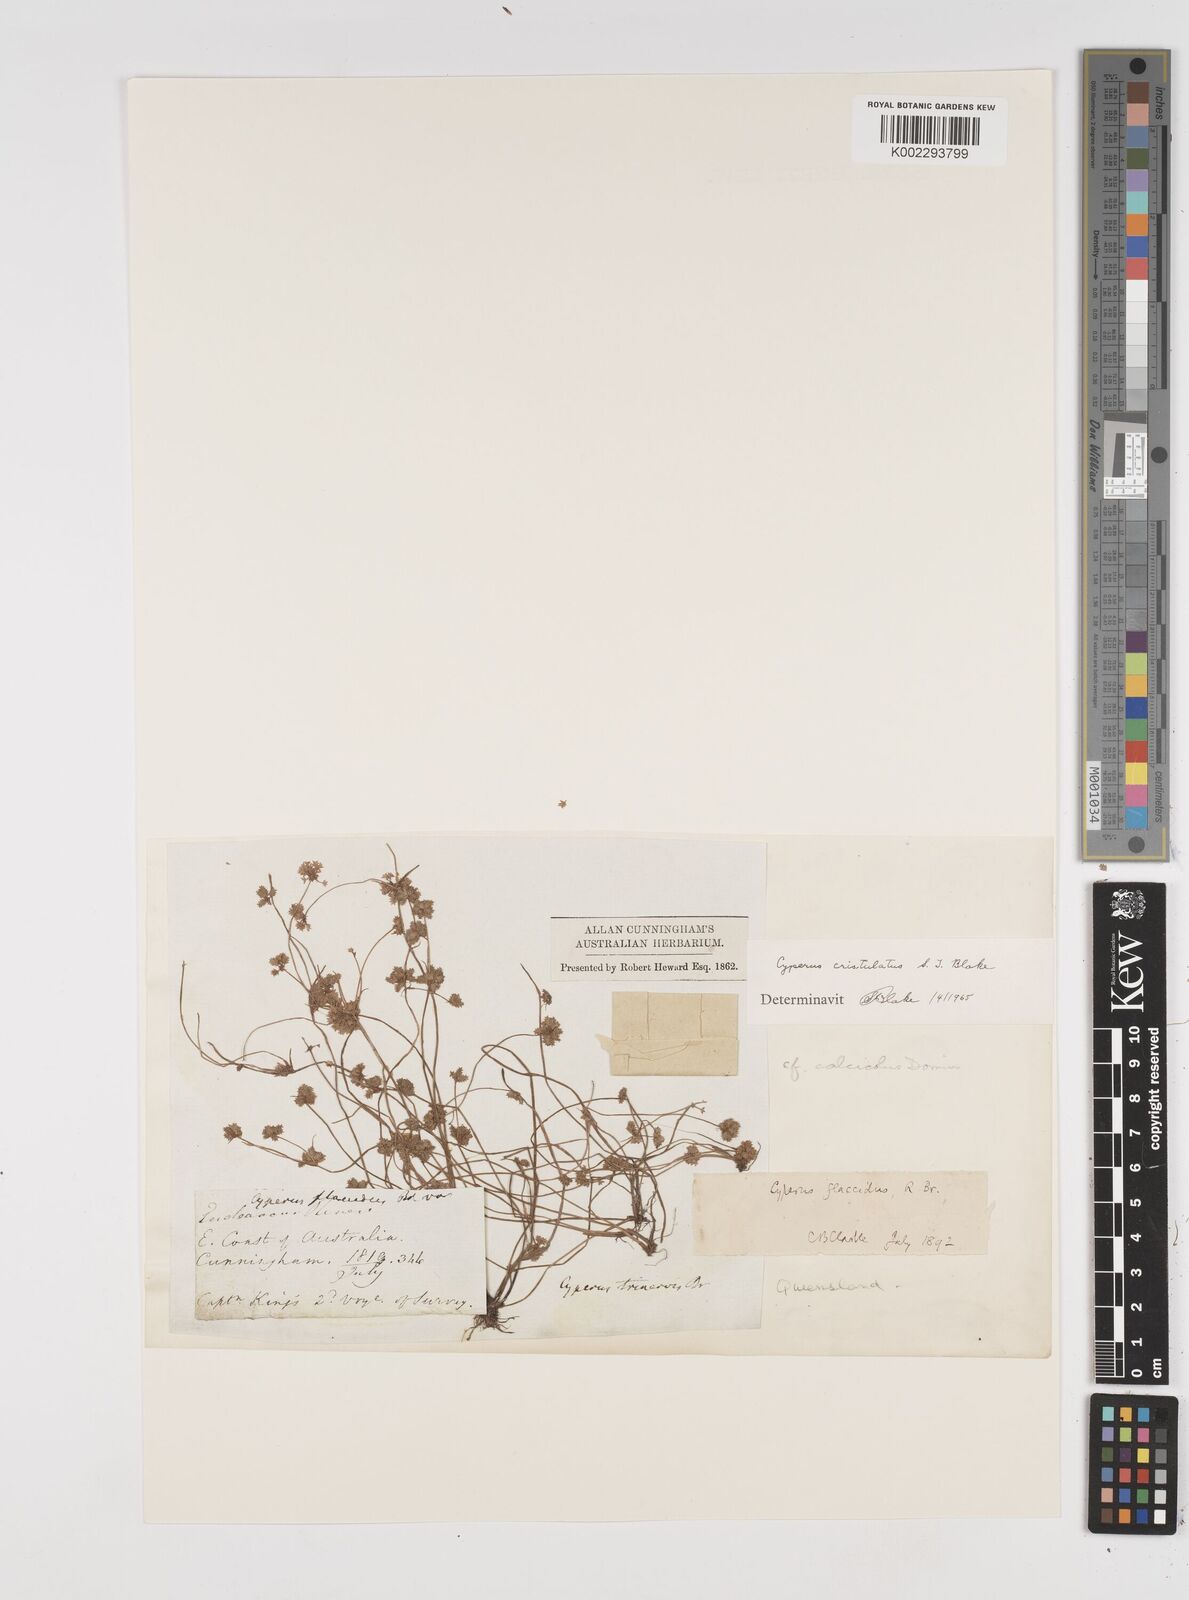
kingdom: Plantae
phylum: Tracheophyta
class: Liliopsida
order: Poales
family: Cyperaceae
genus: Cyperus
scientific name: Cyperus cristulatus
